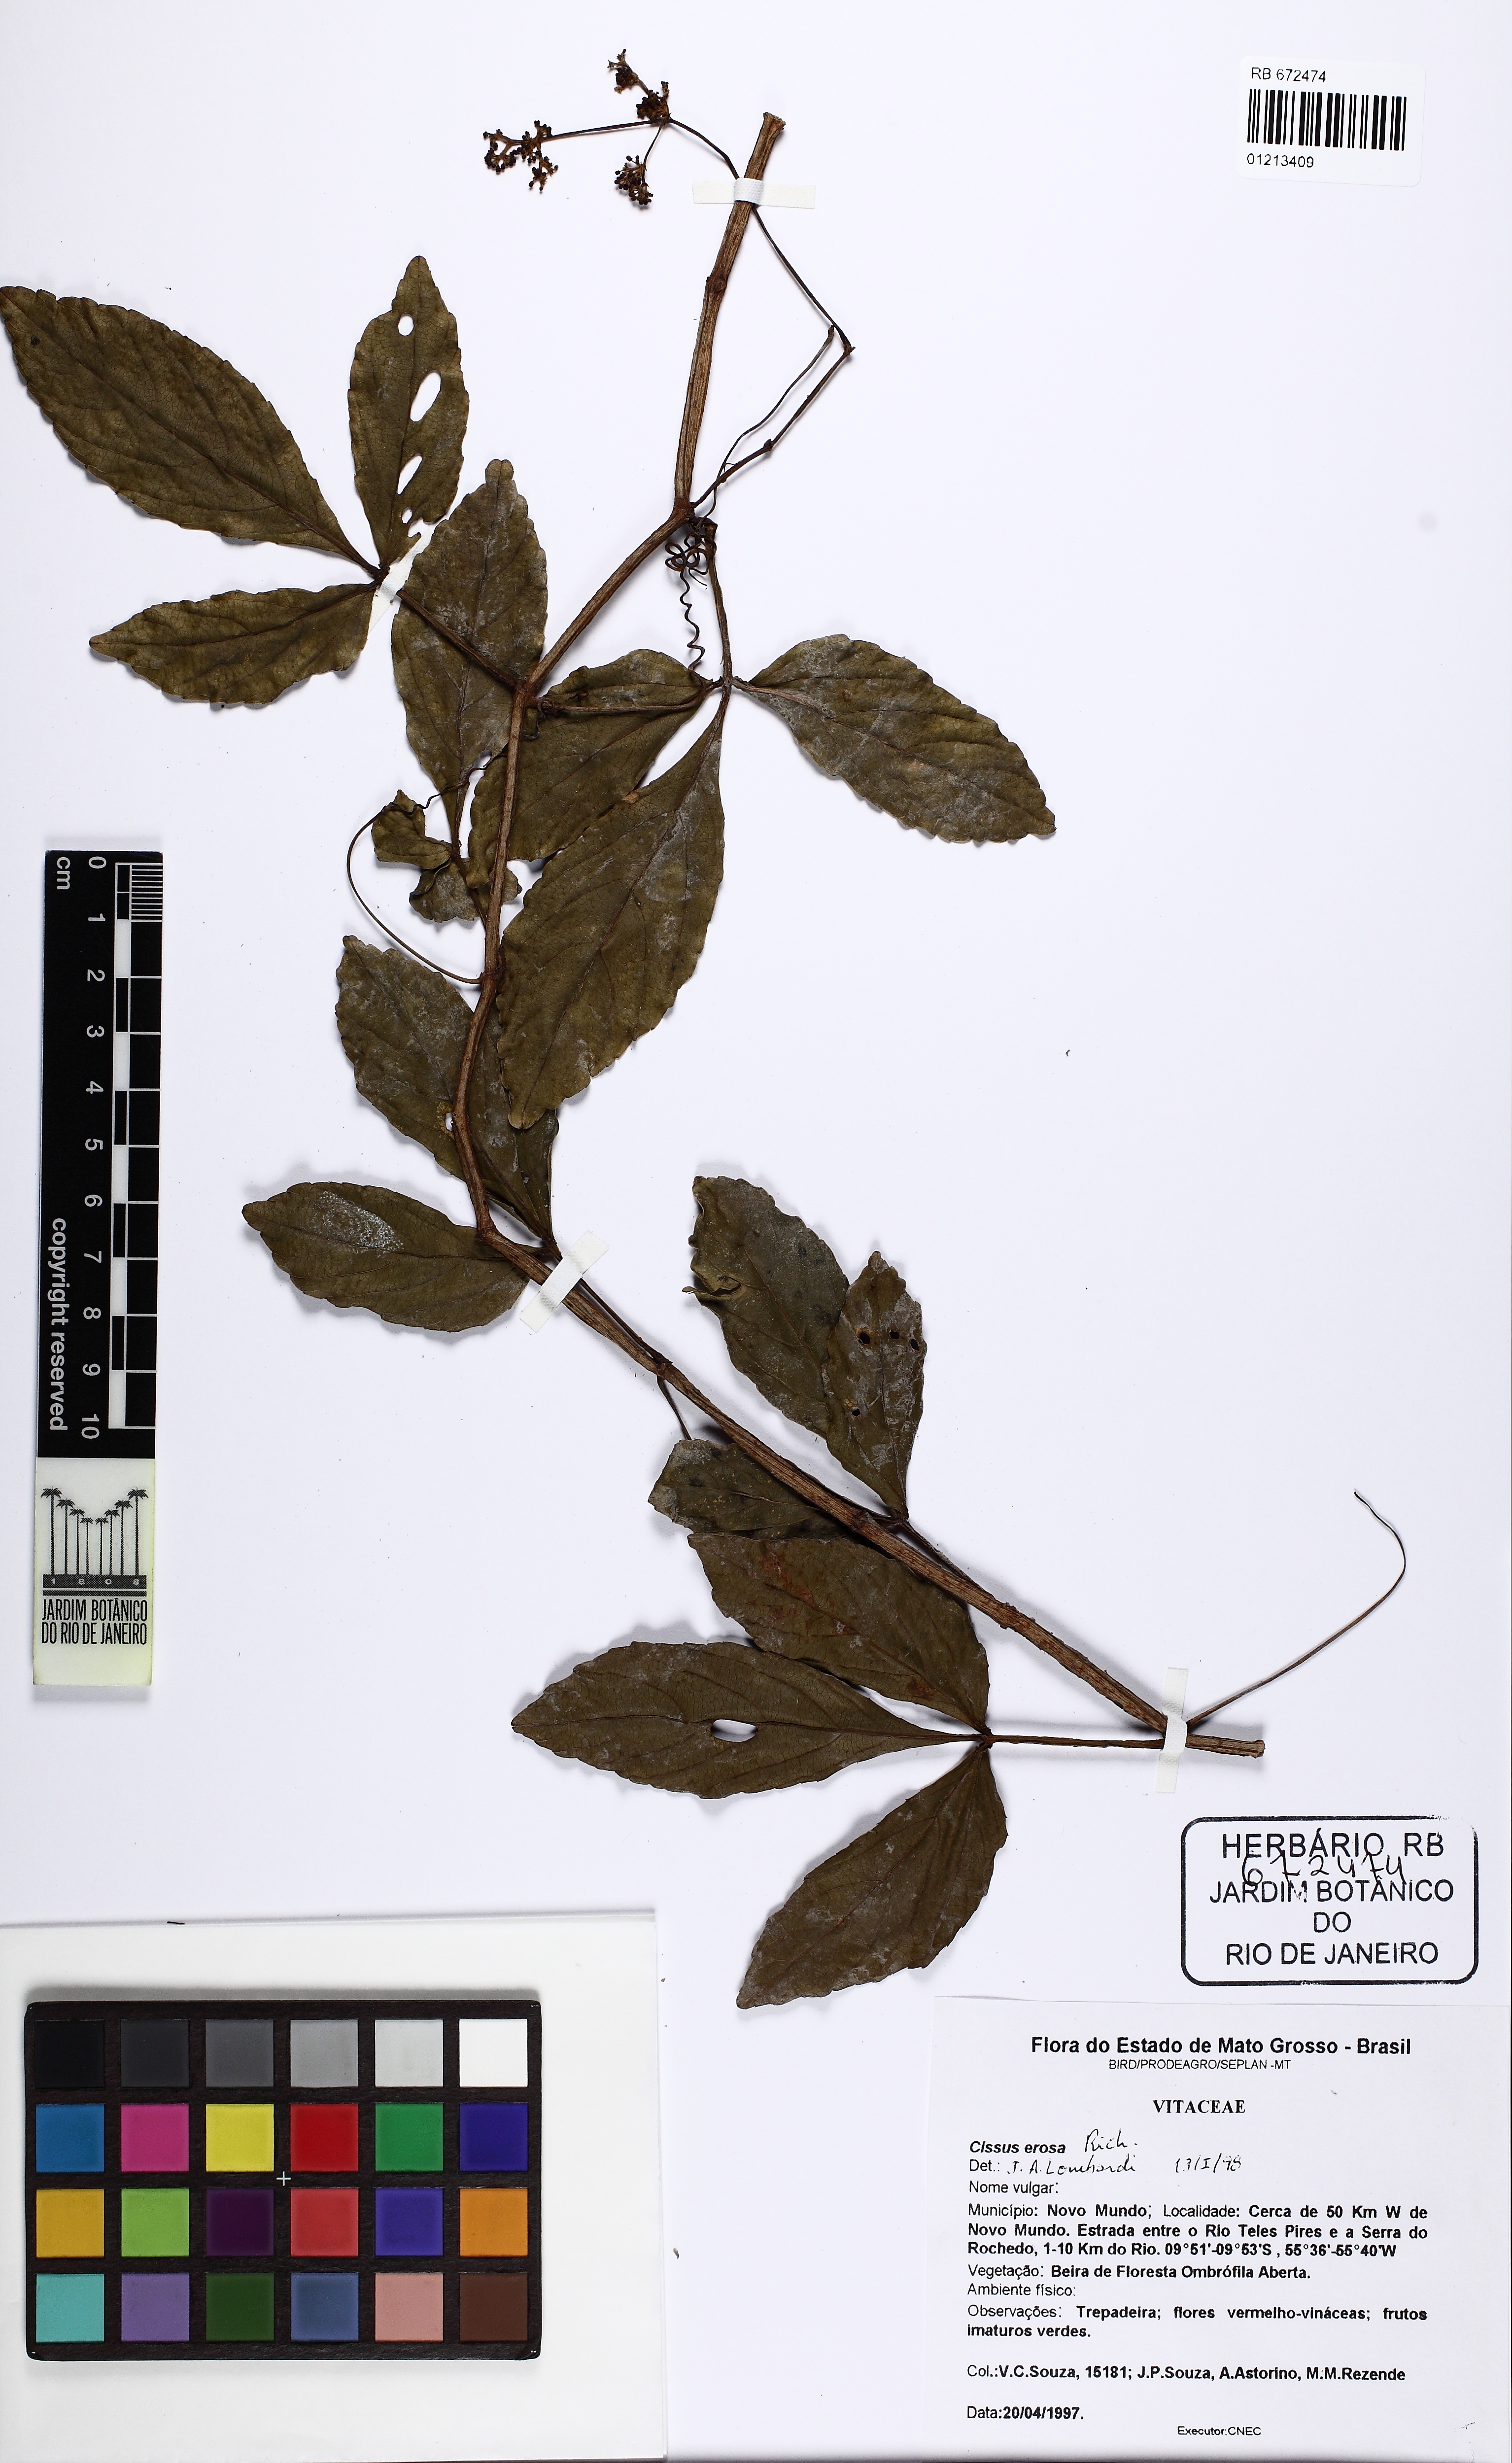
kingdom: Plantae
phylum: Tracheophyta
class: Magnoliopsida
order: Vitales
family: Vitaceae
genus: Cissus
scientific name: Cissus erosa
